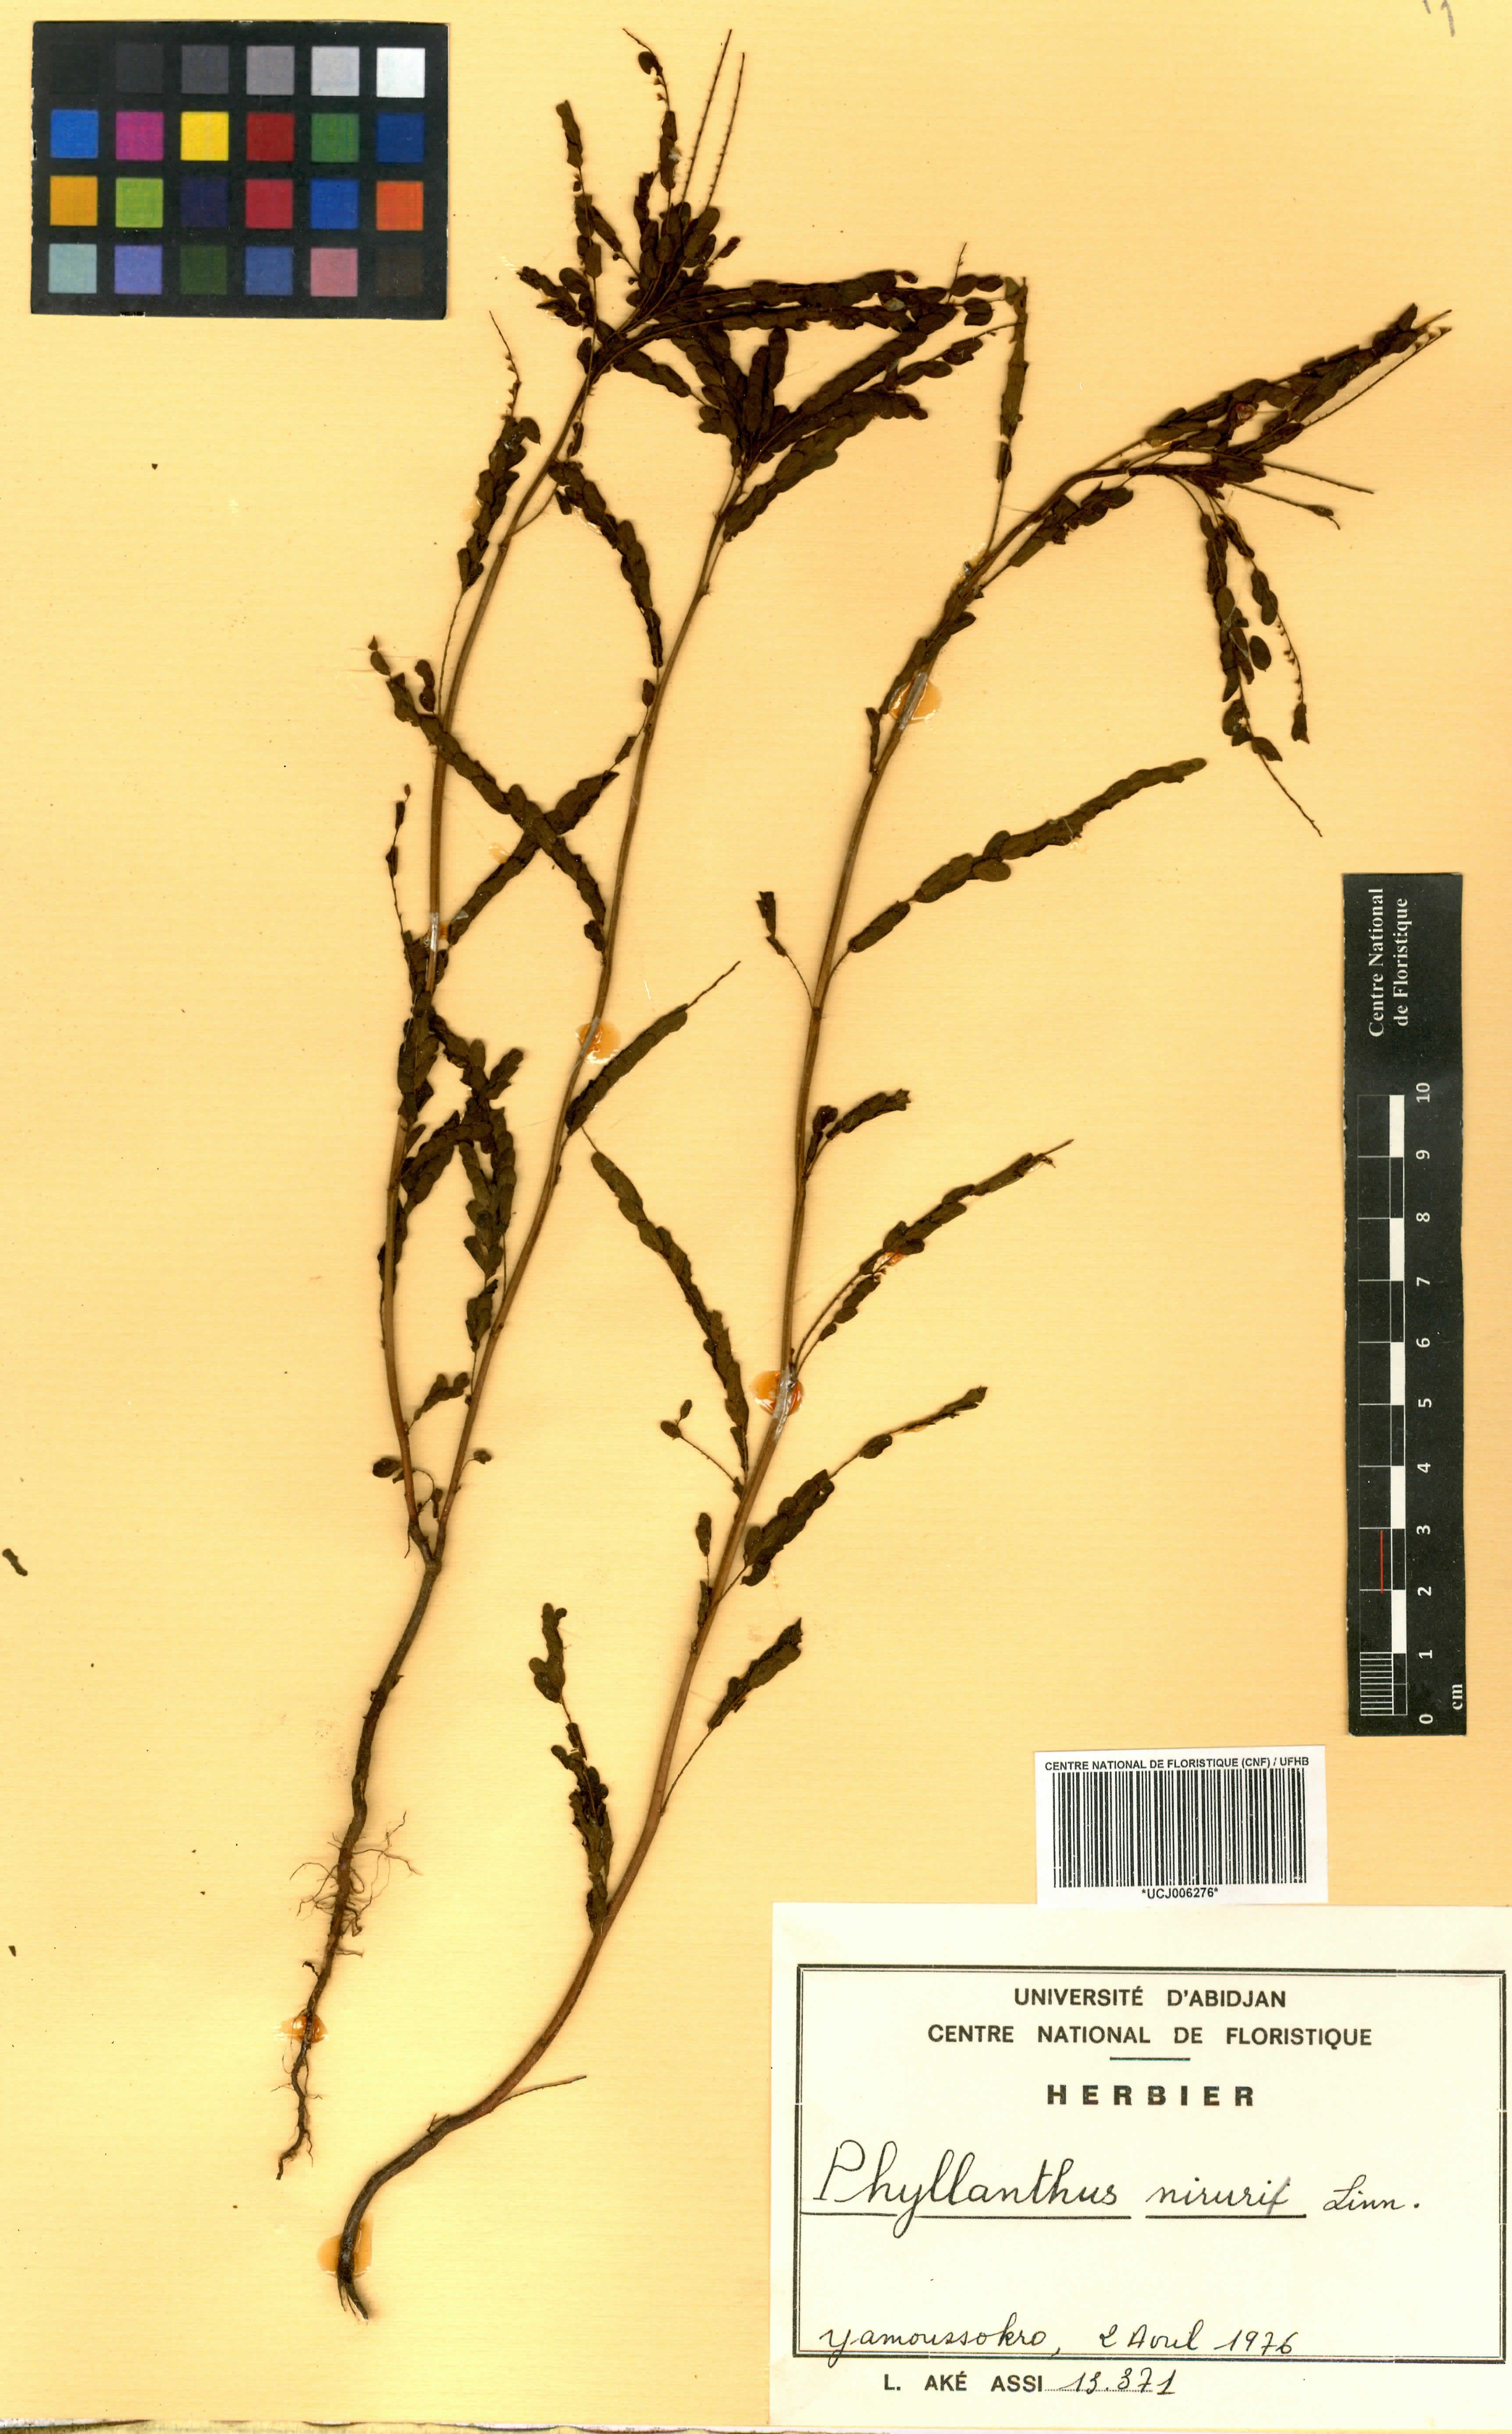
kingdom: Plantae
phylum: Tracheophyta
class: Magnoliopsida
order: Malpighiales
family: Phyllanthaceae
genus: Phyllanthus
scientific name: Phyllanthus niruri
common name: Niruri
